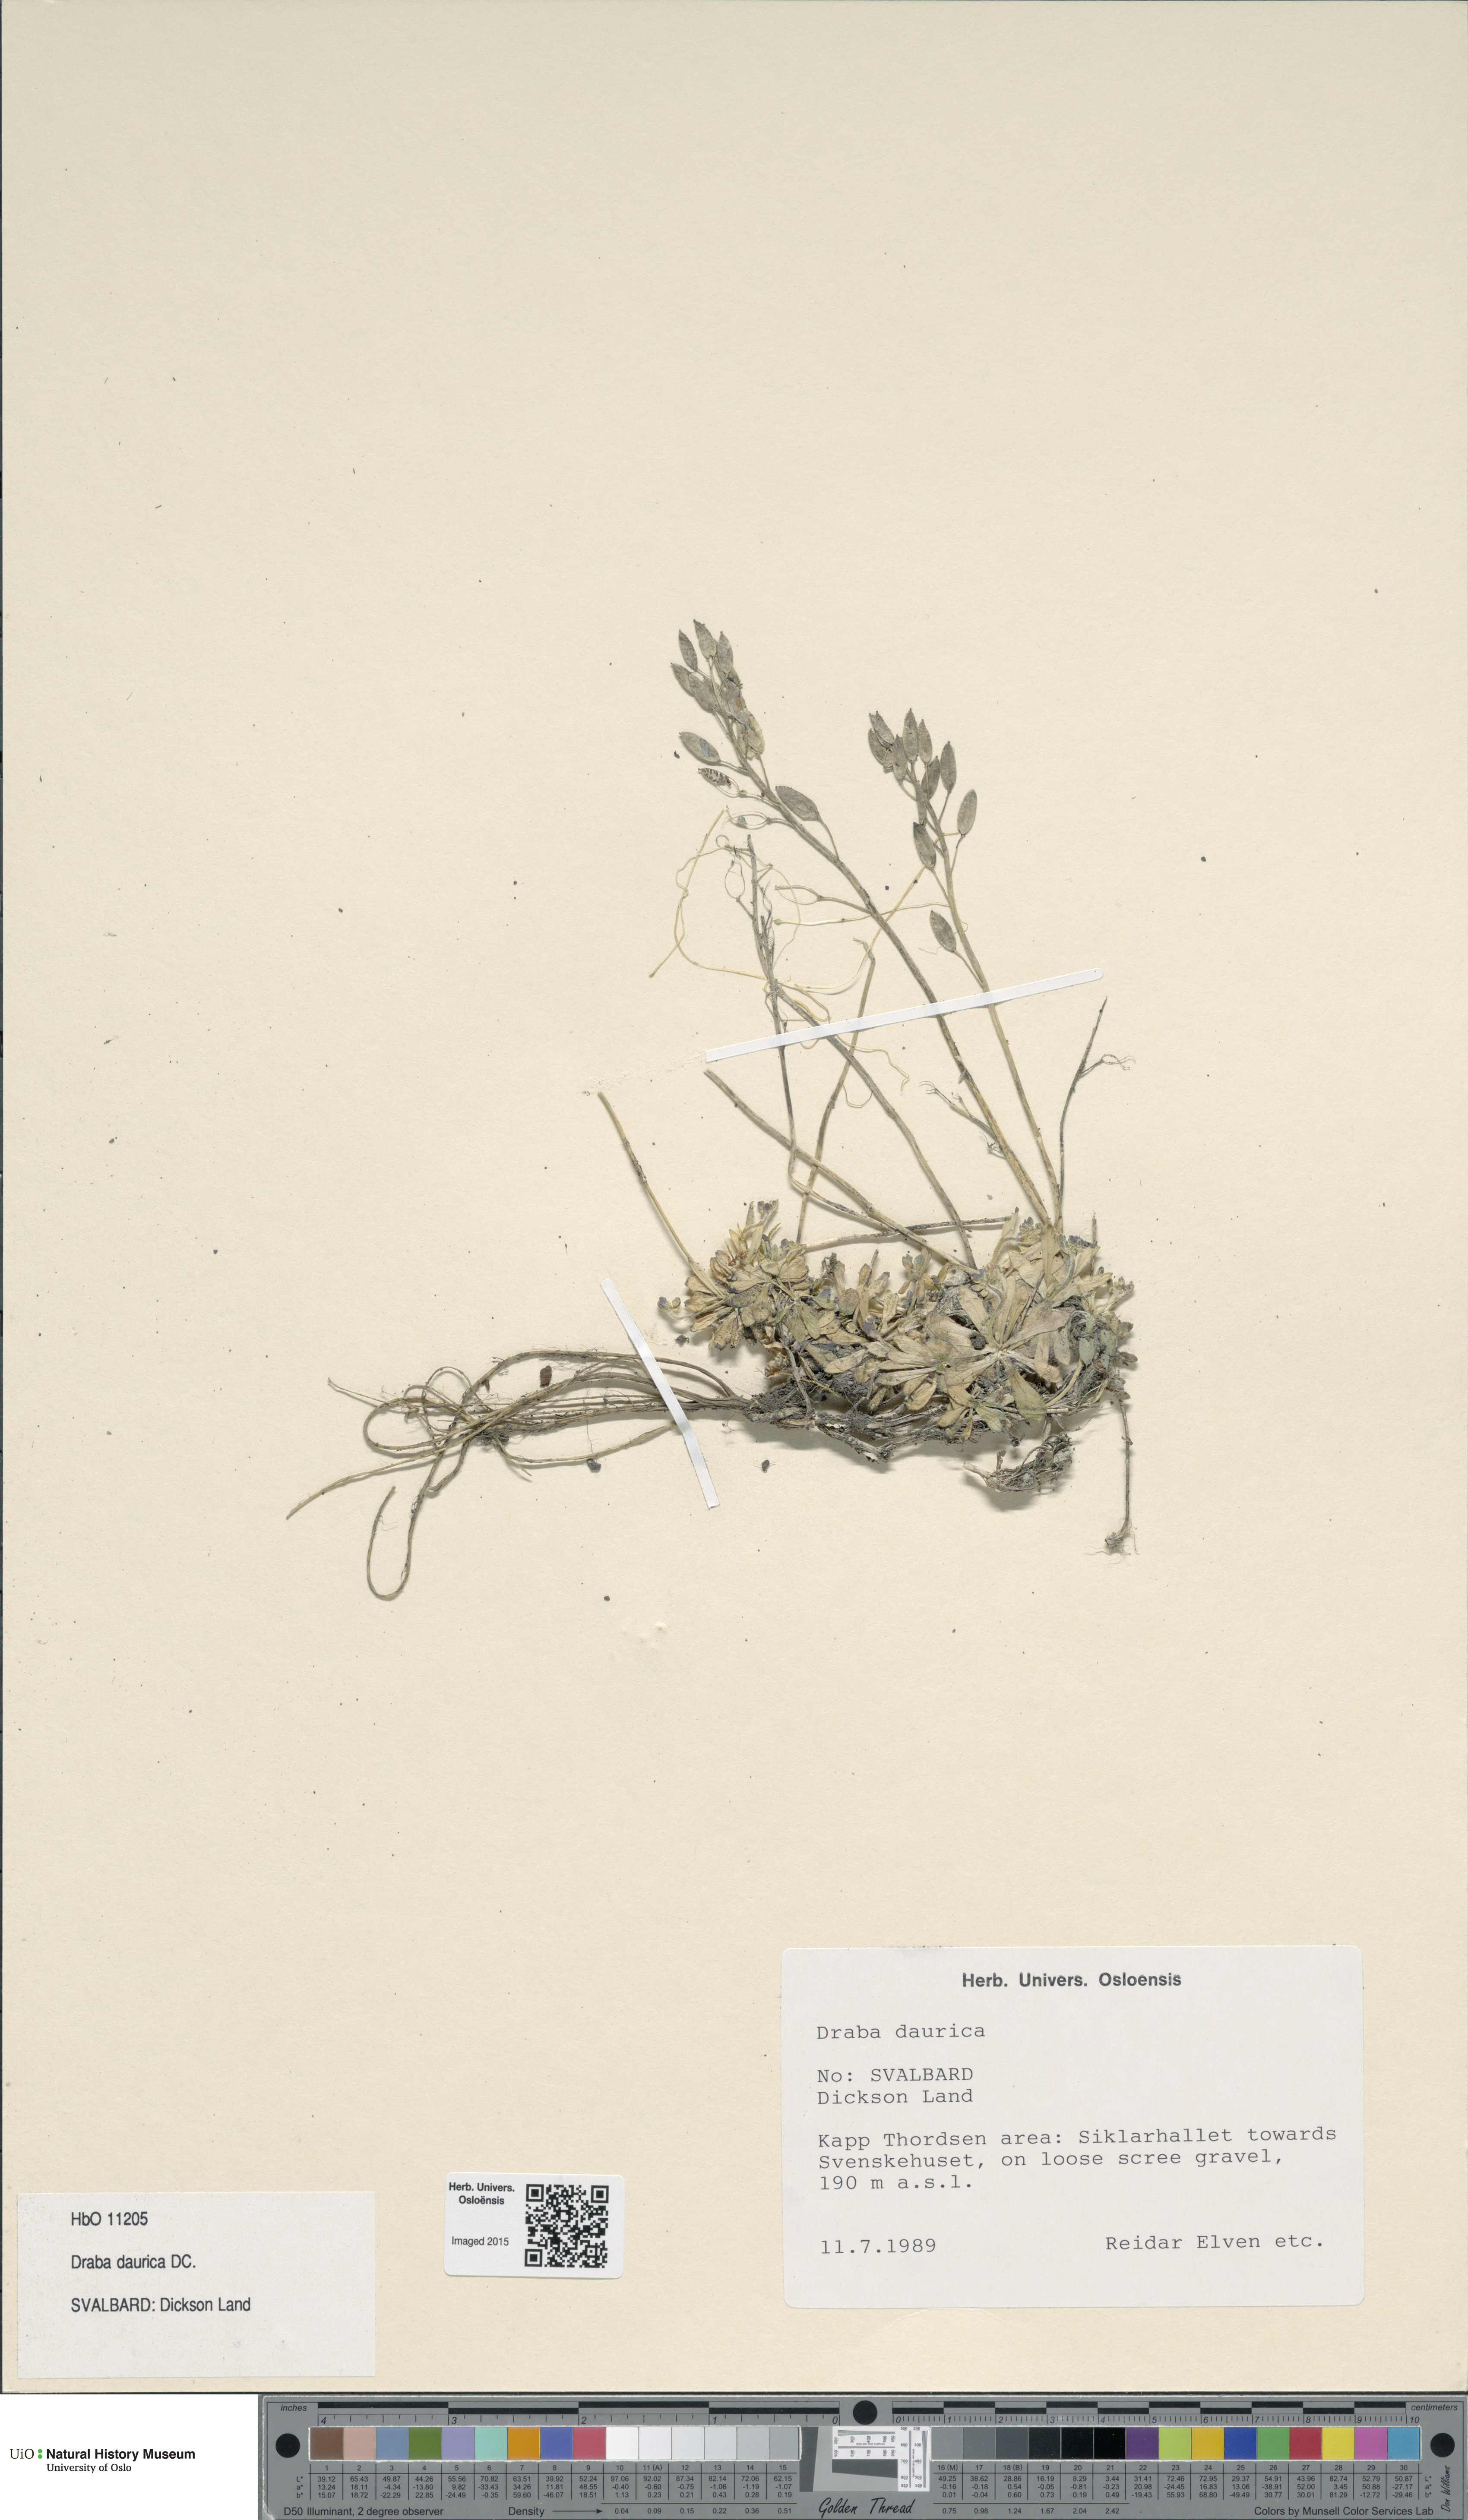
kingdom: Plantae
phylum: Tracheophyta
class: Magnoliopsida
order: Brassicales
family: Brassicaceae
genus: Draba
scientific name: Draba glabella
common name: Glaucous draba
